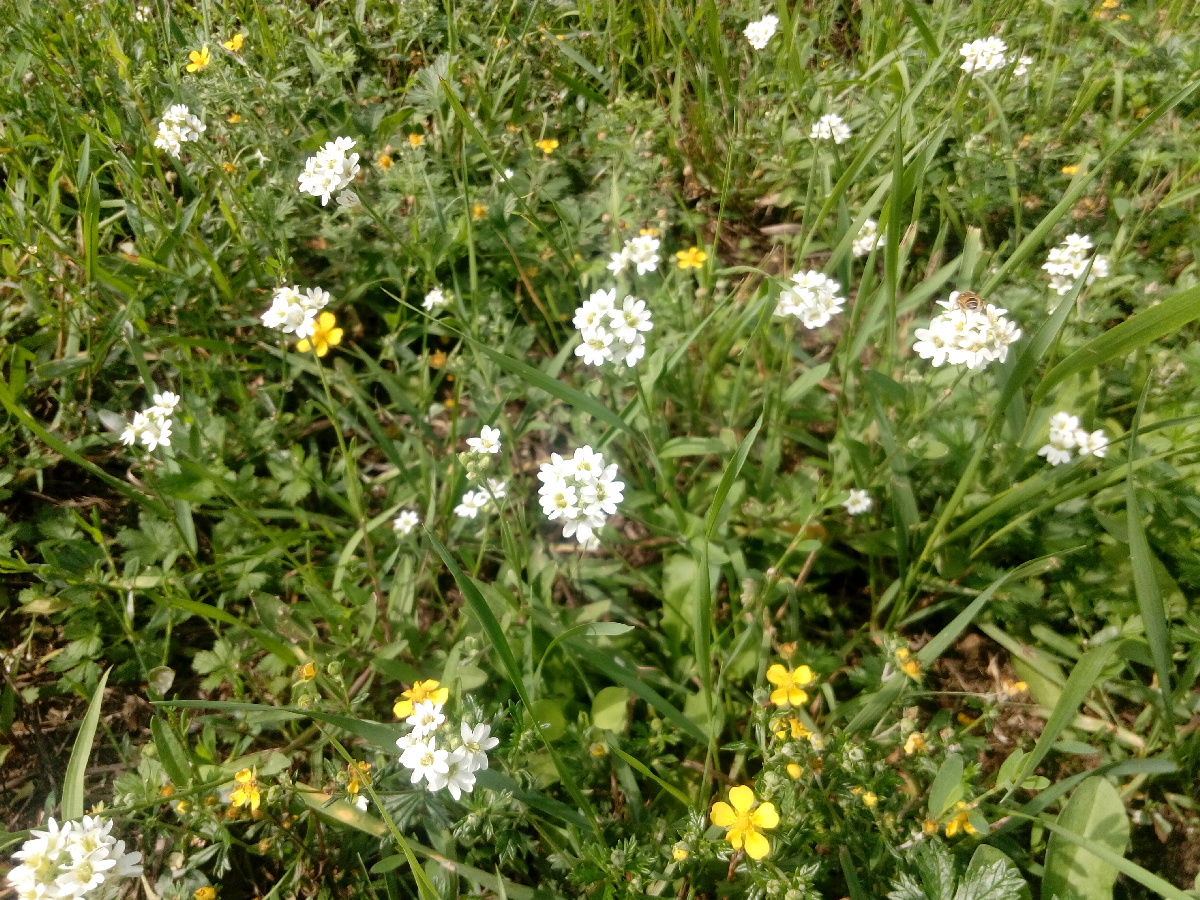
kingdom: Plantae
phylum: Tracheophyta
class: Magnoliopsida
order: Brassicales
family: Brassicaceae
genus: Berteroa
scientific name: Berteroa incana
